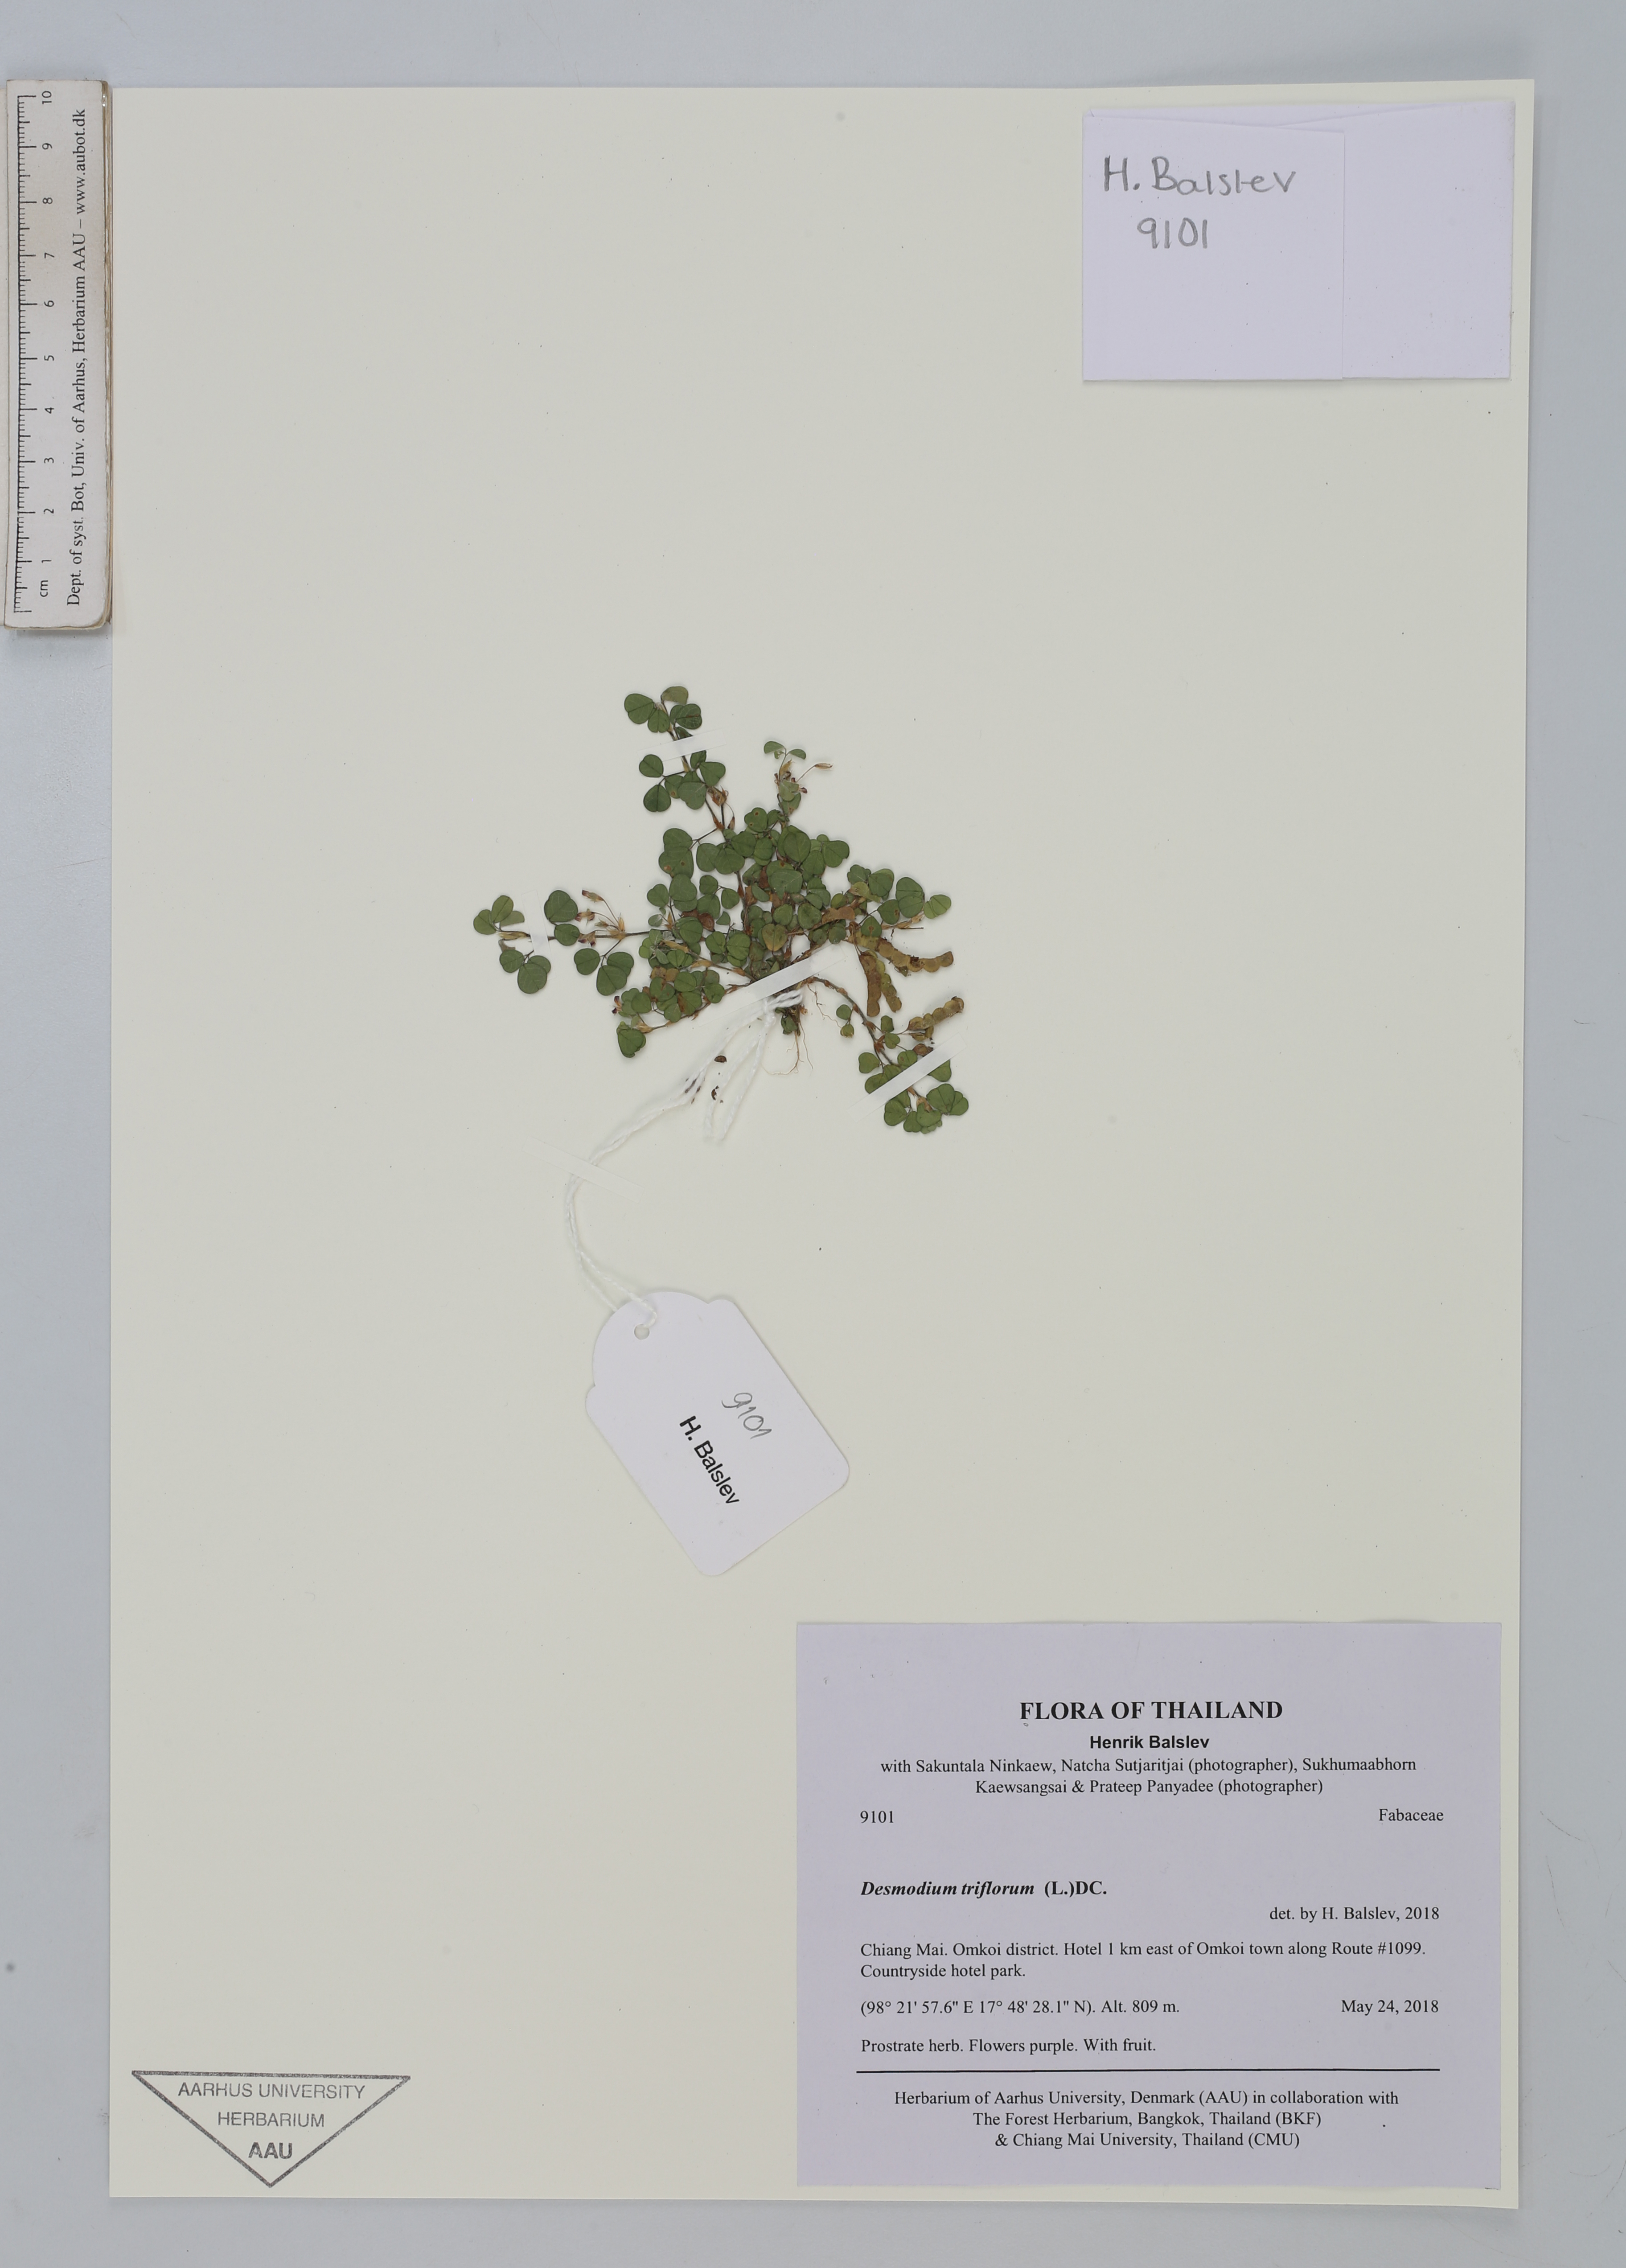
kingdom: Plantae
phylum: Tracheophyta
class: Magnoliopsida
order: Fabales
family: Fabaceae
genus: Grona
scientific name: Grona triflora
